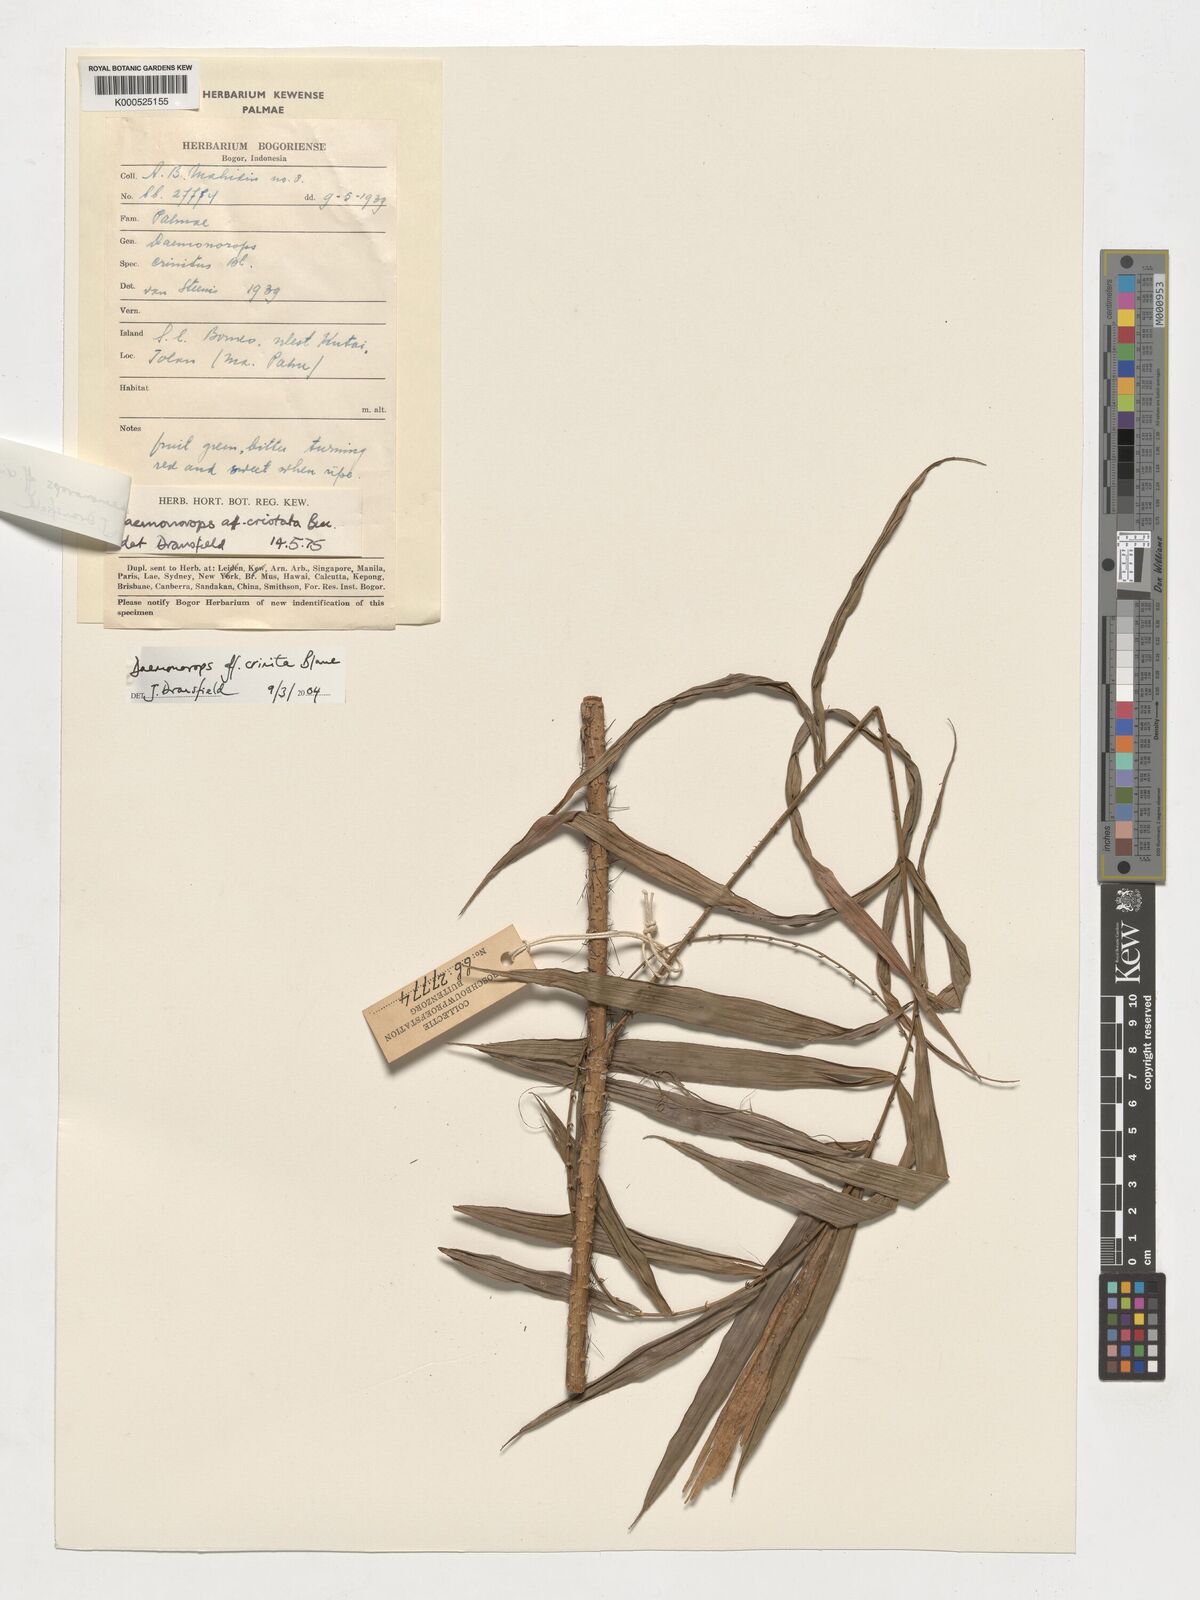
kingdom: Plantae
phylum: Tracheophyta
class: Liliopsida
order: Arecales
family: Arecaceae
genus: Calamus
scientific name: Calamus cristatus
